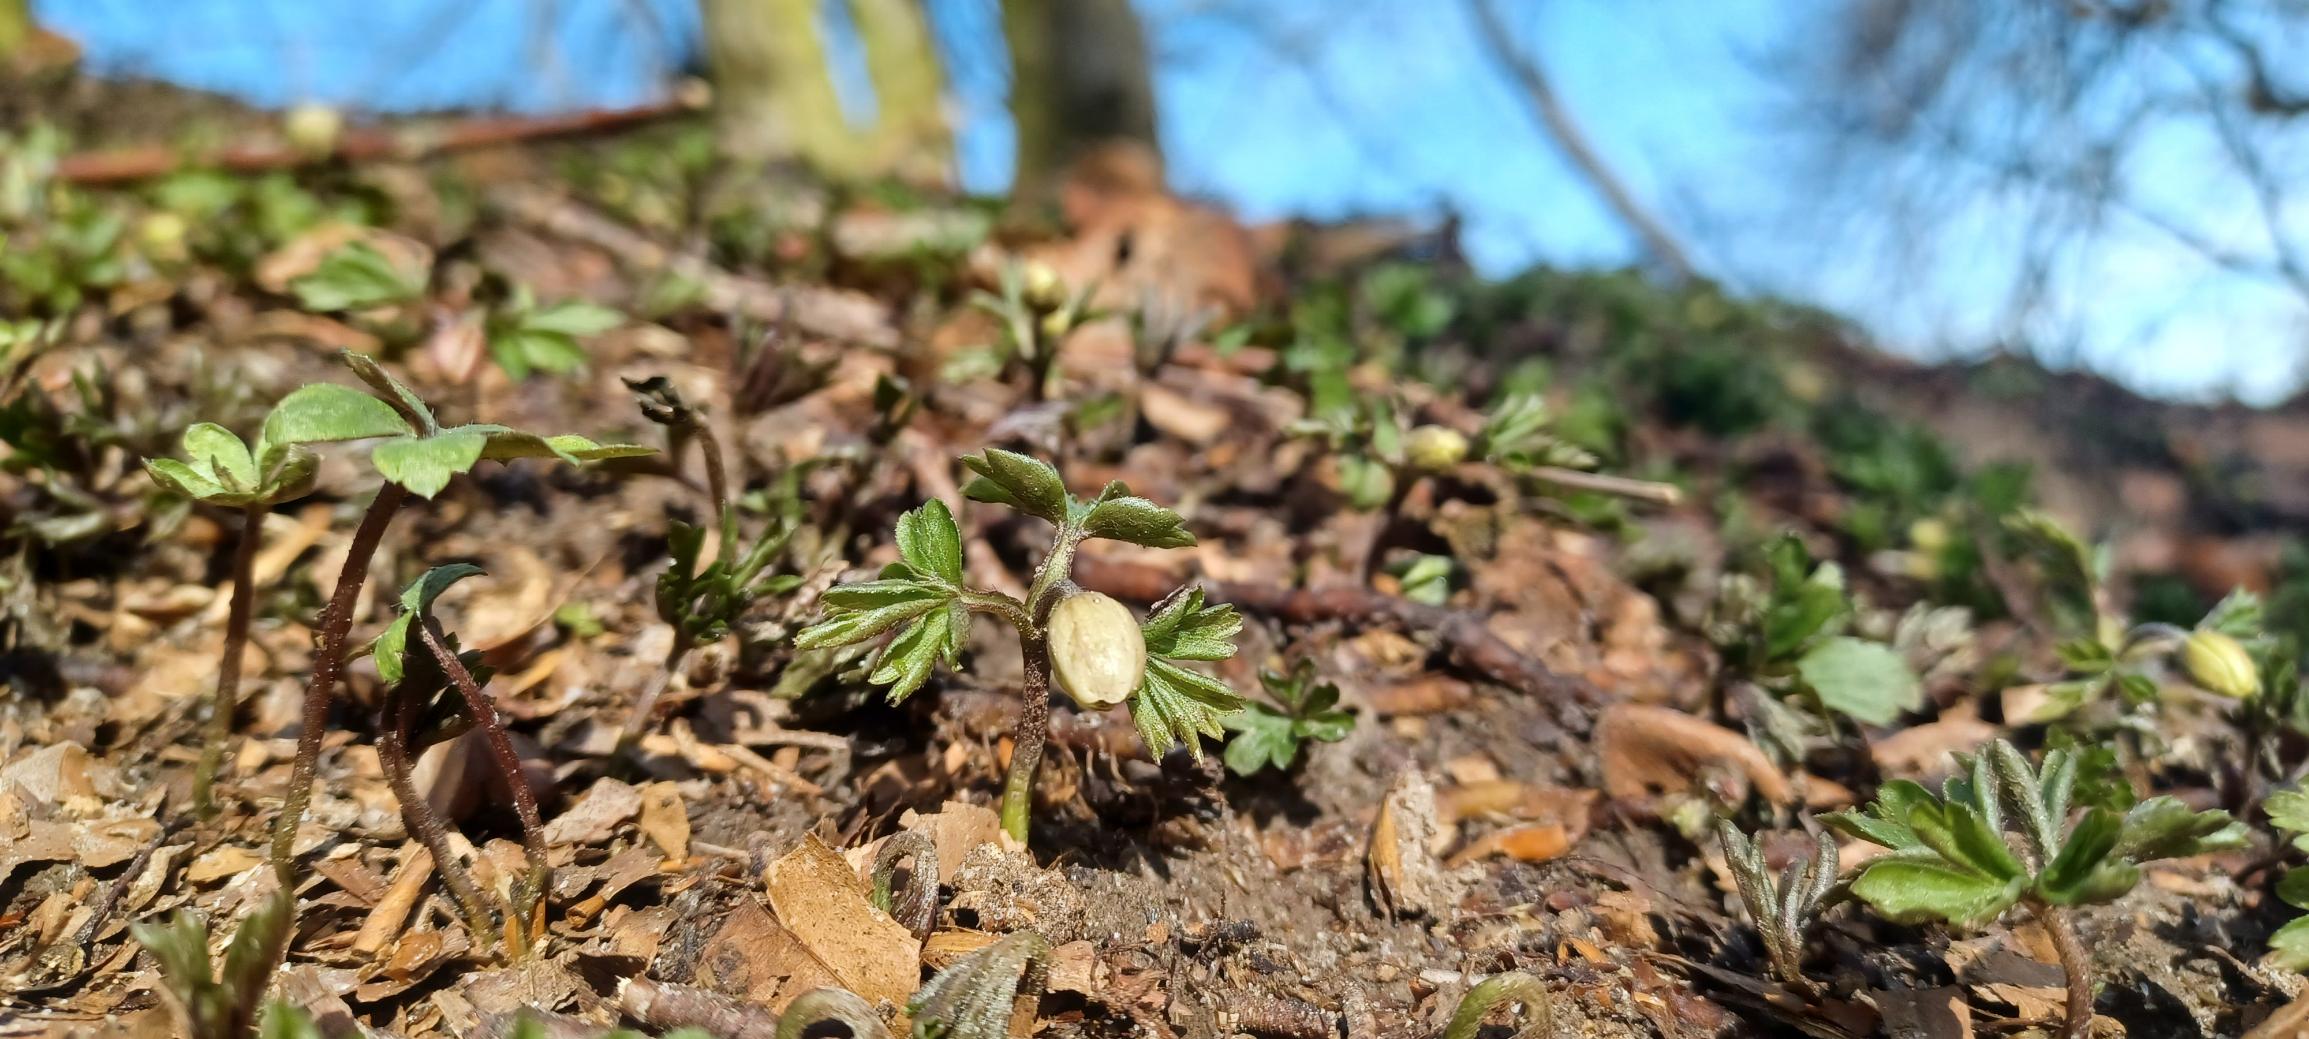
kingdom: Plantae
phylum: Tracheophyta
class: Magnoliopsida
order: Ranunculales
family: Ranunculaceae
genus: Anemone
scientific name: Anemone nemorosa
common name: Hvid anemone
